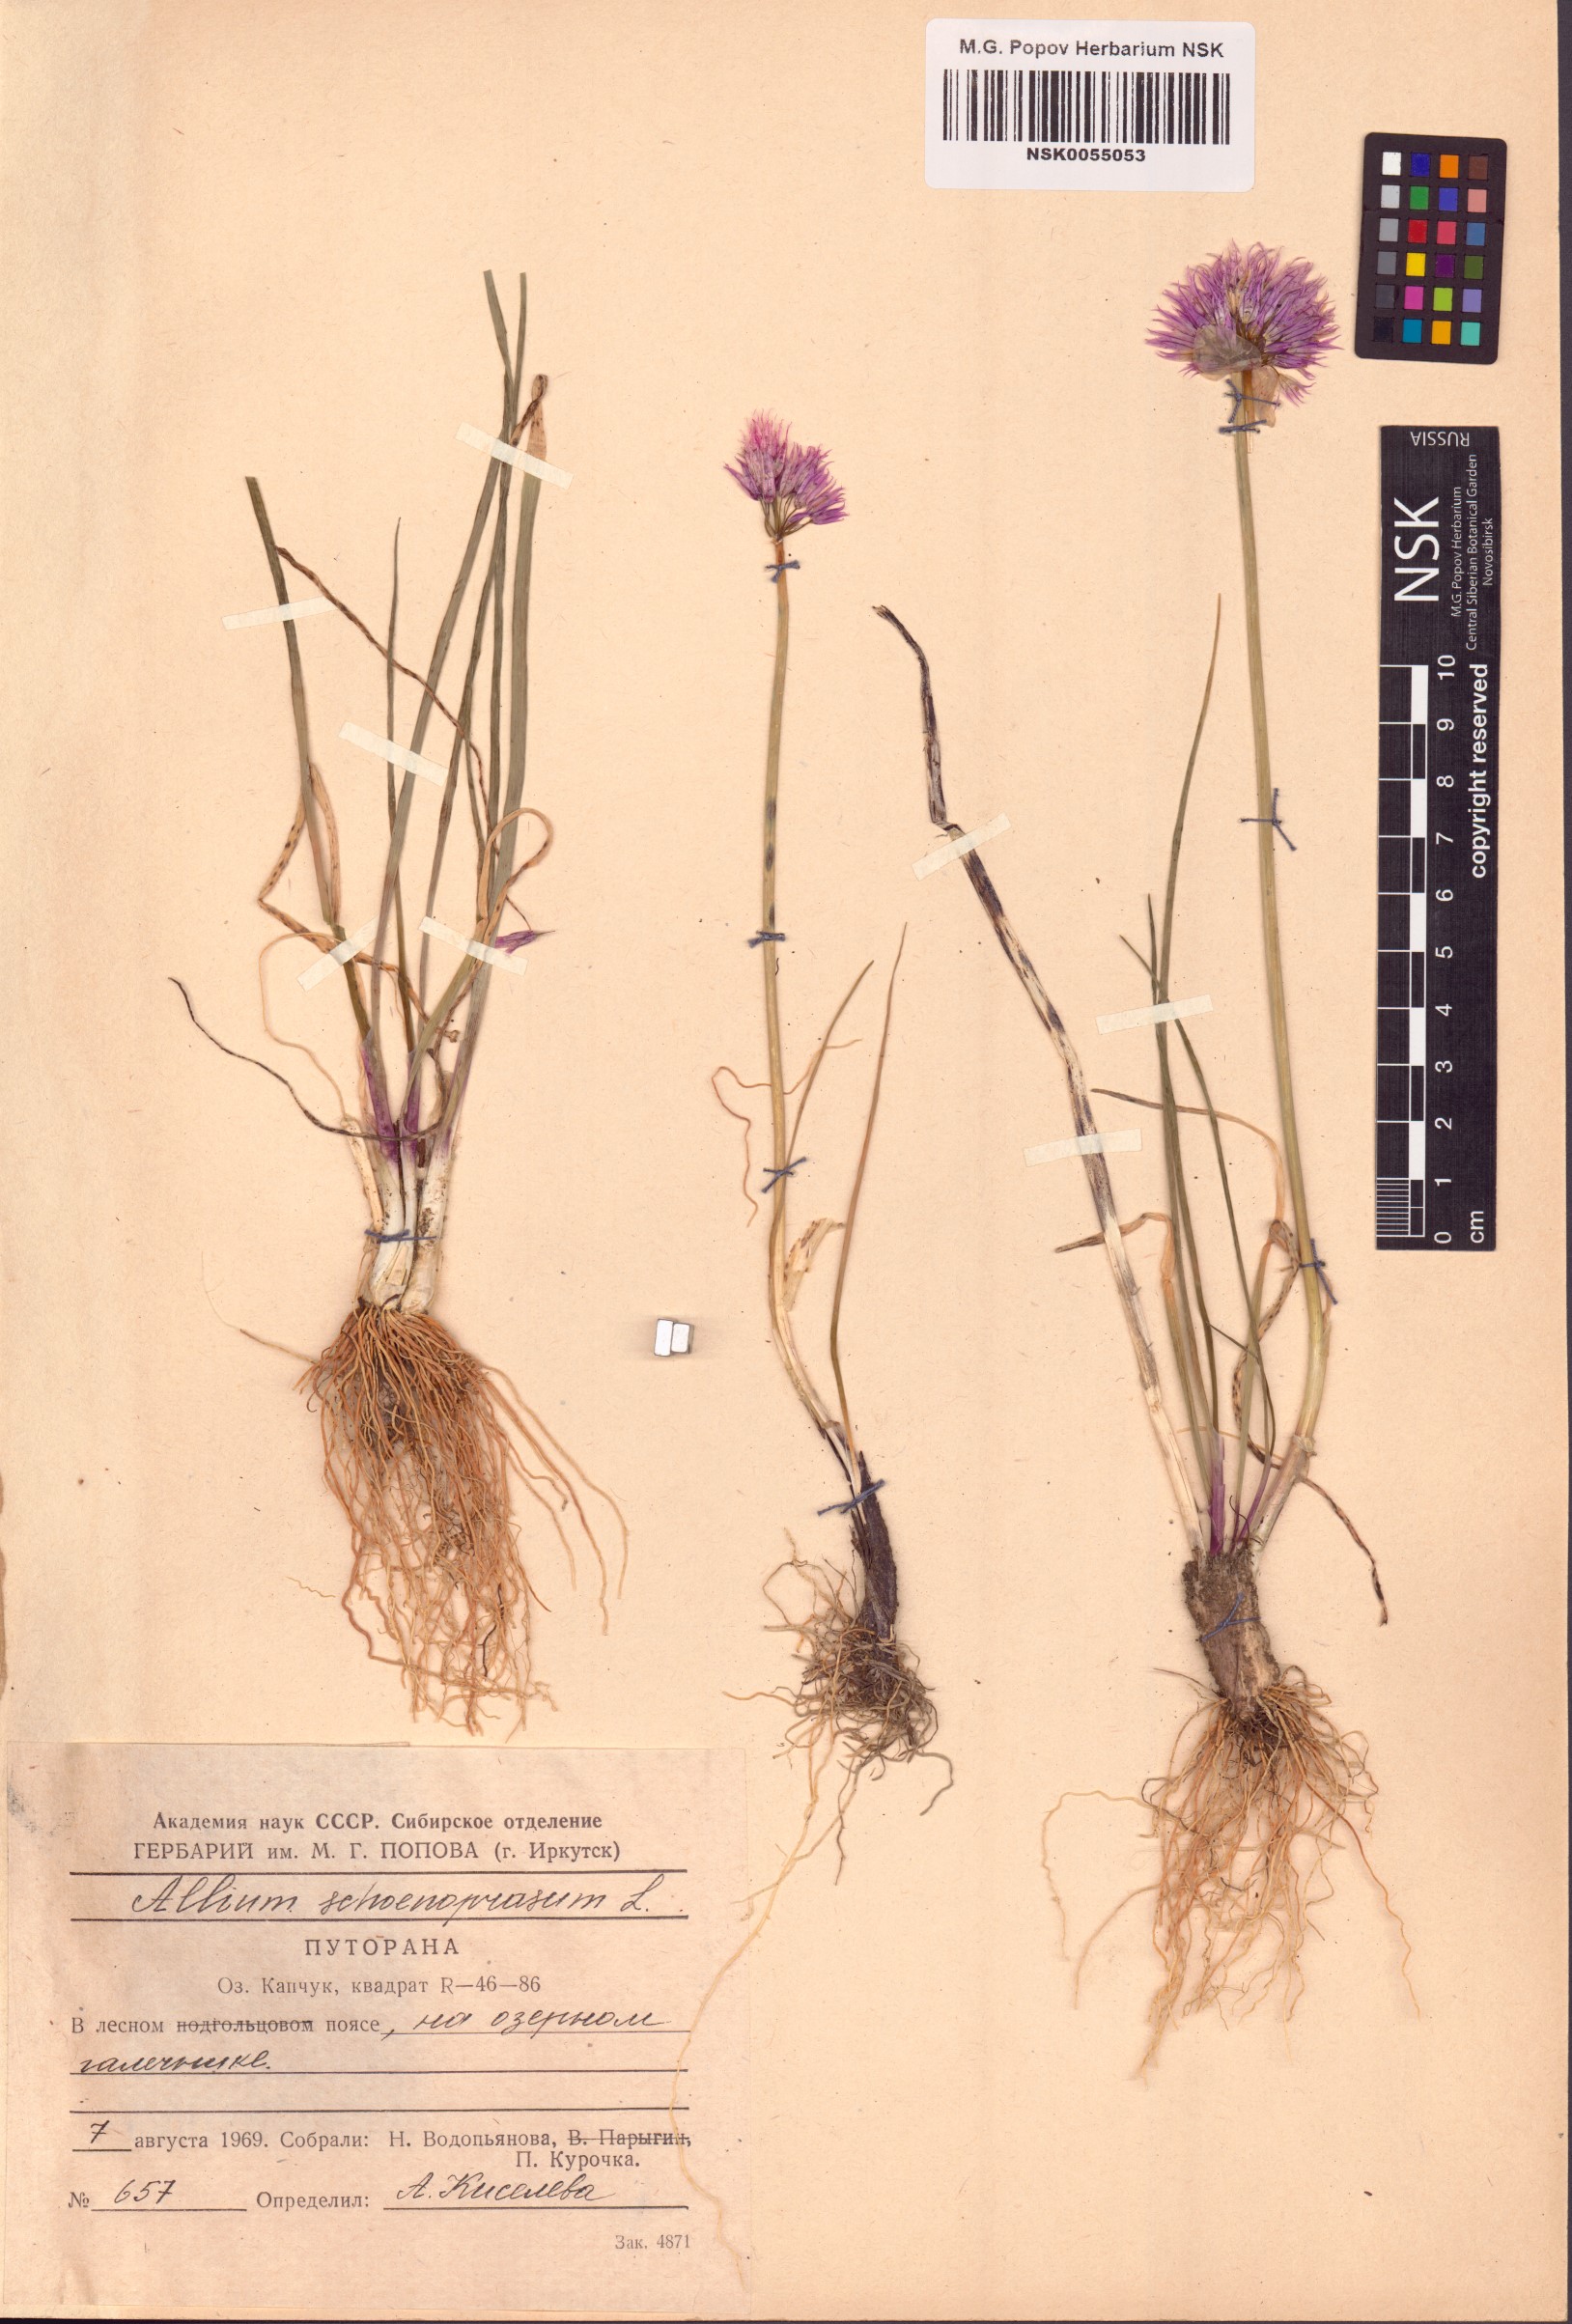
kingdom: Plantae
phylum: Tracheophyta
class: Liliopsida
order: Asparagales
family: Amaryllidaceae
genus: Allium
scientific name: Allium schoenoprasum
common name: Chives
